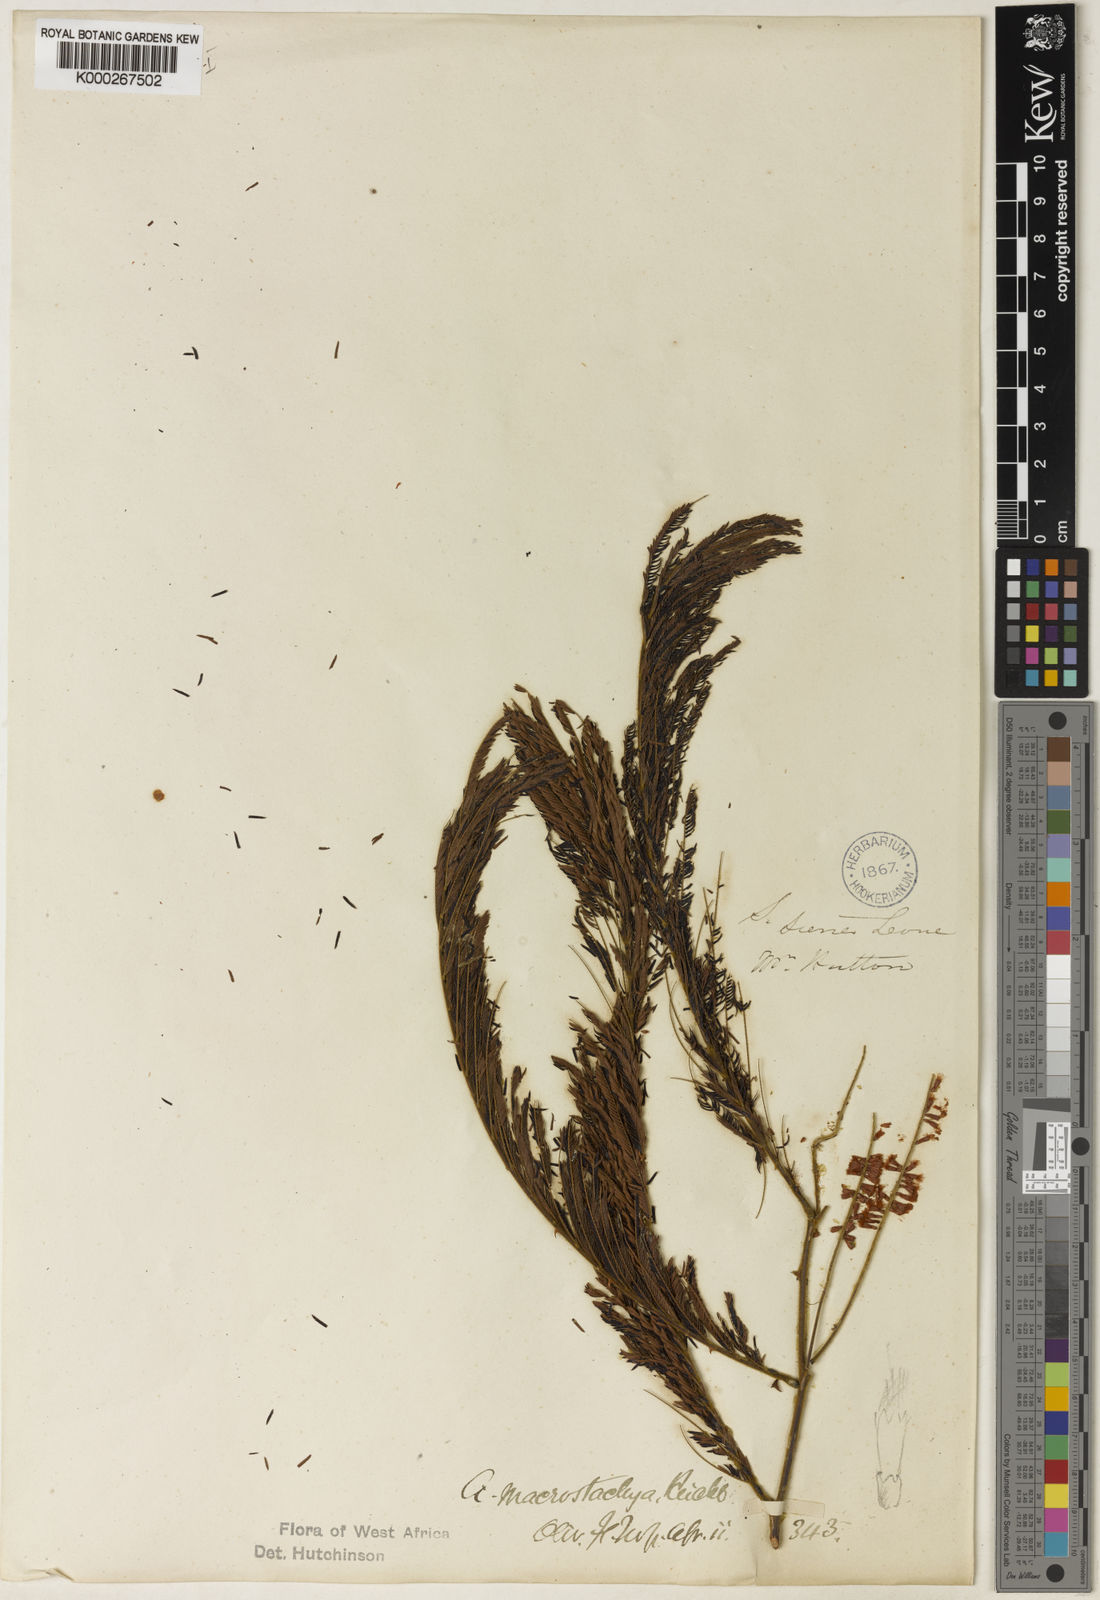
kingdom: Plantae
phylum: Tracheophyta
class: Magnoliopsida
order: Fabales
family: Fabaceae
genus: Acacia
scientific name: Acacia
